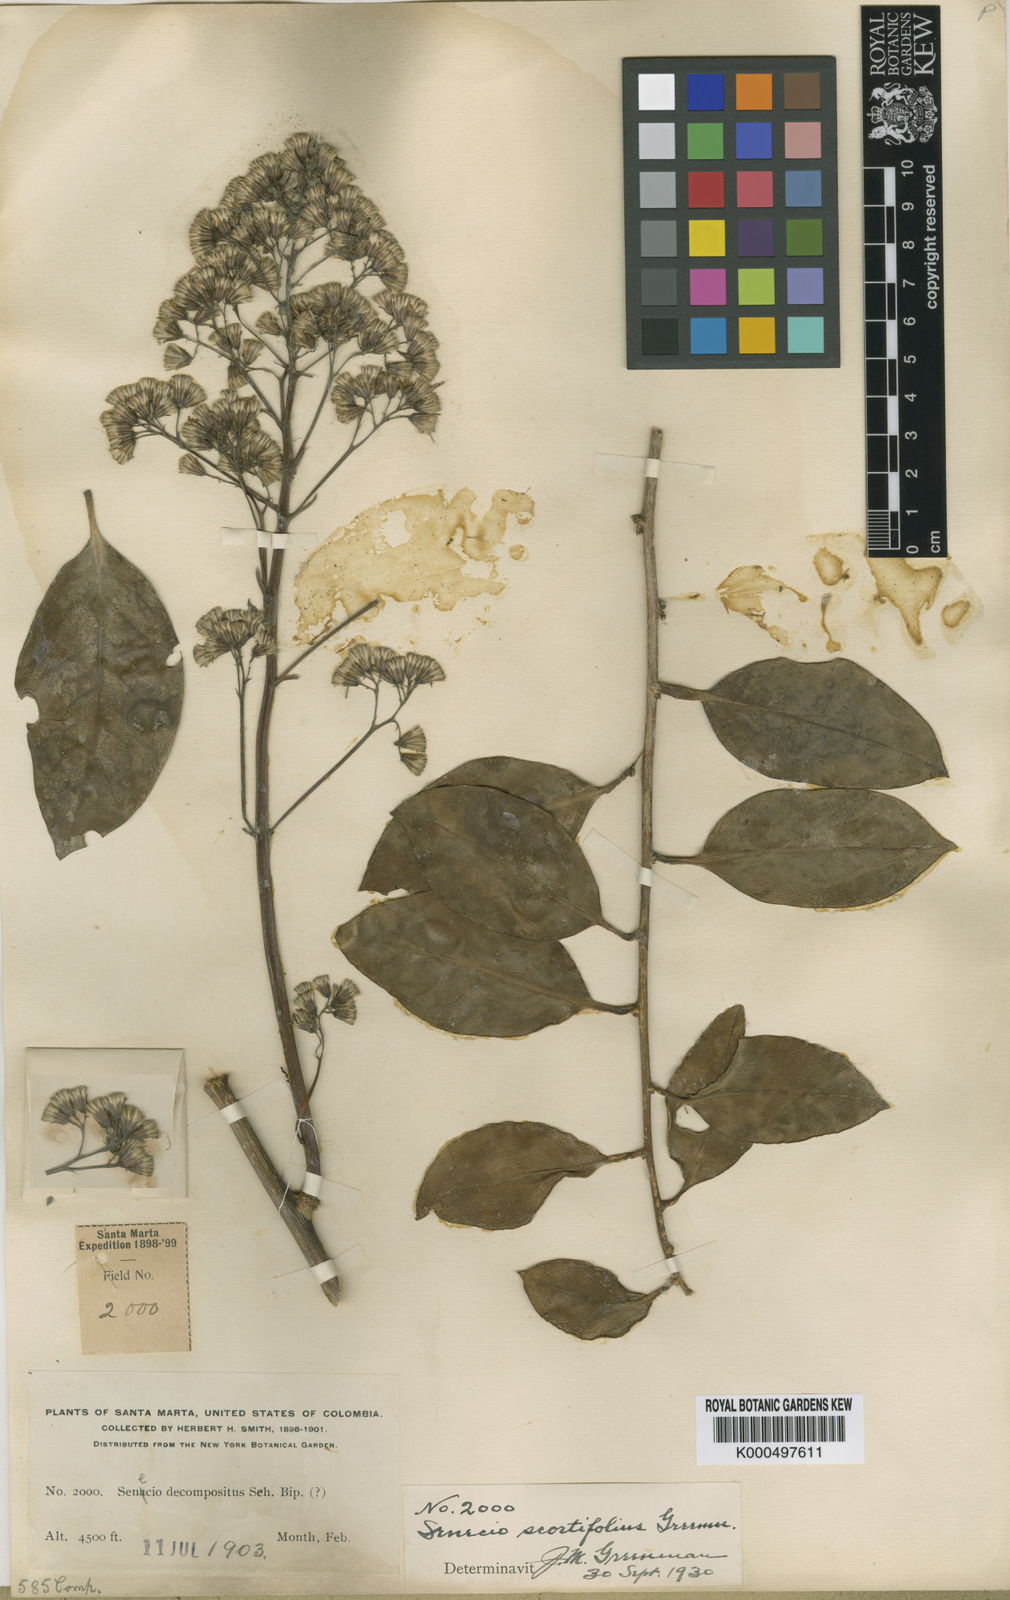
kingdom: Plantae
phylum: Tracheophyta
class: Magnoliopsida
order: Asterales
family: Asteraceae
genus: Pentacalia
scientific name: Pentacalia scortifolia
